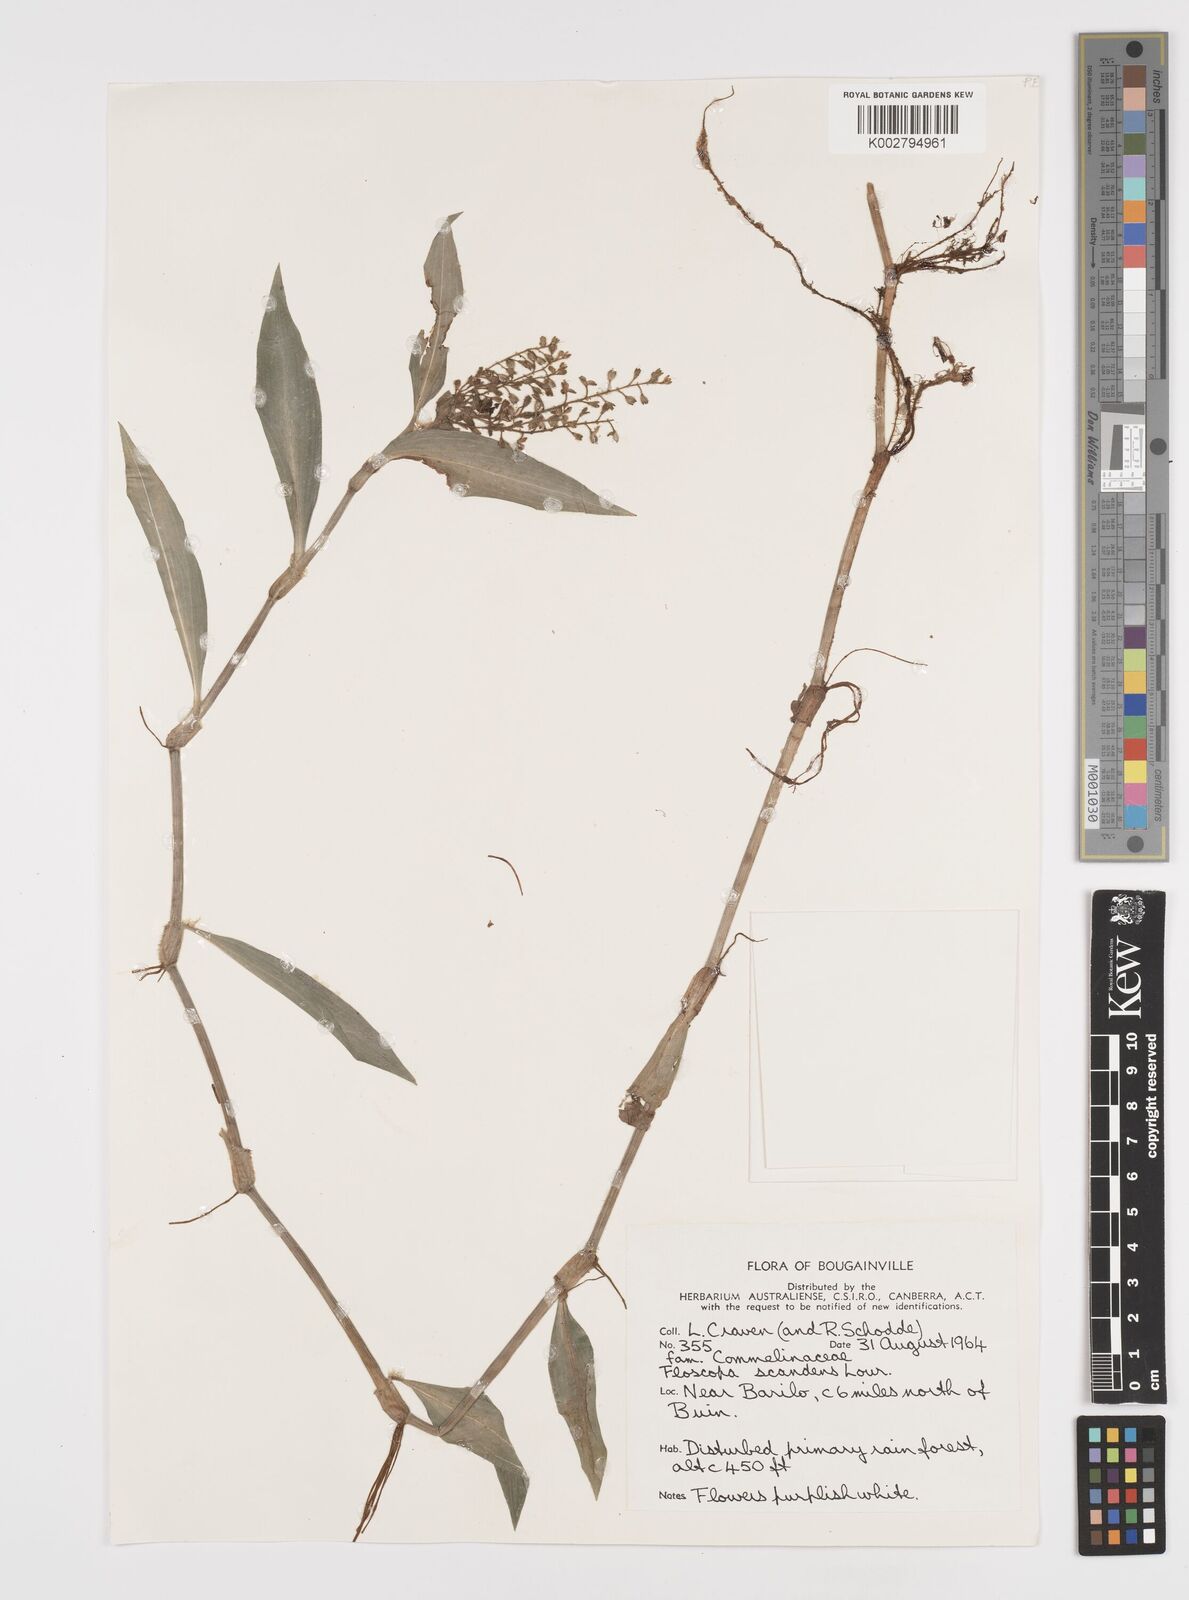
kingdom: Plantae
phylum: Tracheophyta
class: Liliopsida
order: Commelinales
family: Commelinaceae
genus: Floscopa
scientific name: Floscopa scandens
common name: Climbing flower cup
